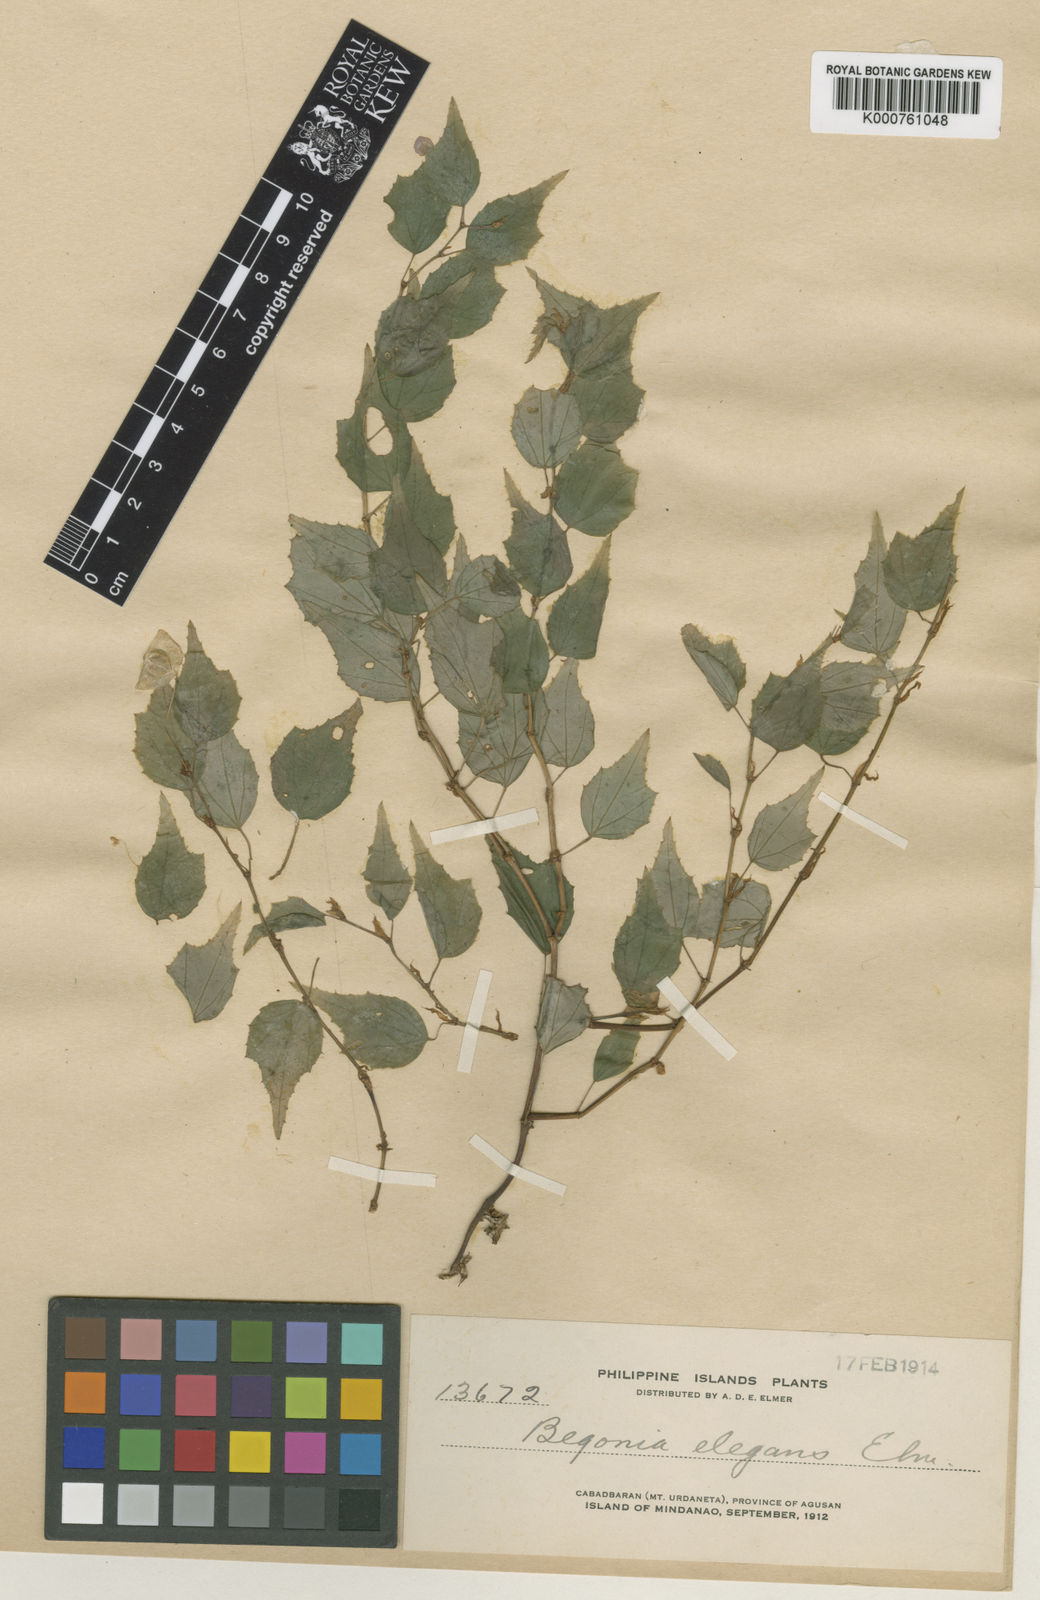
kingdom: Plantae
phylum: Tracheophyta
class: Magnoliopsida
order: Cucurbitales
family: Begoniaceae
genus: Begonia
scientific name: Begonia sarmentosa
